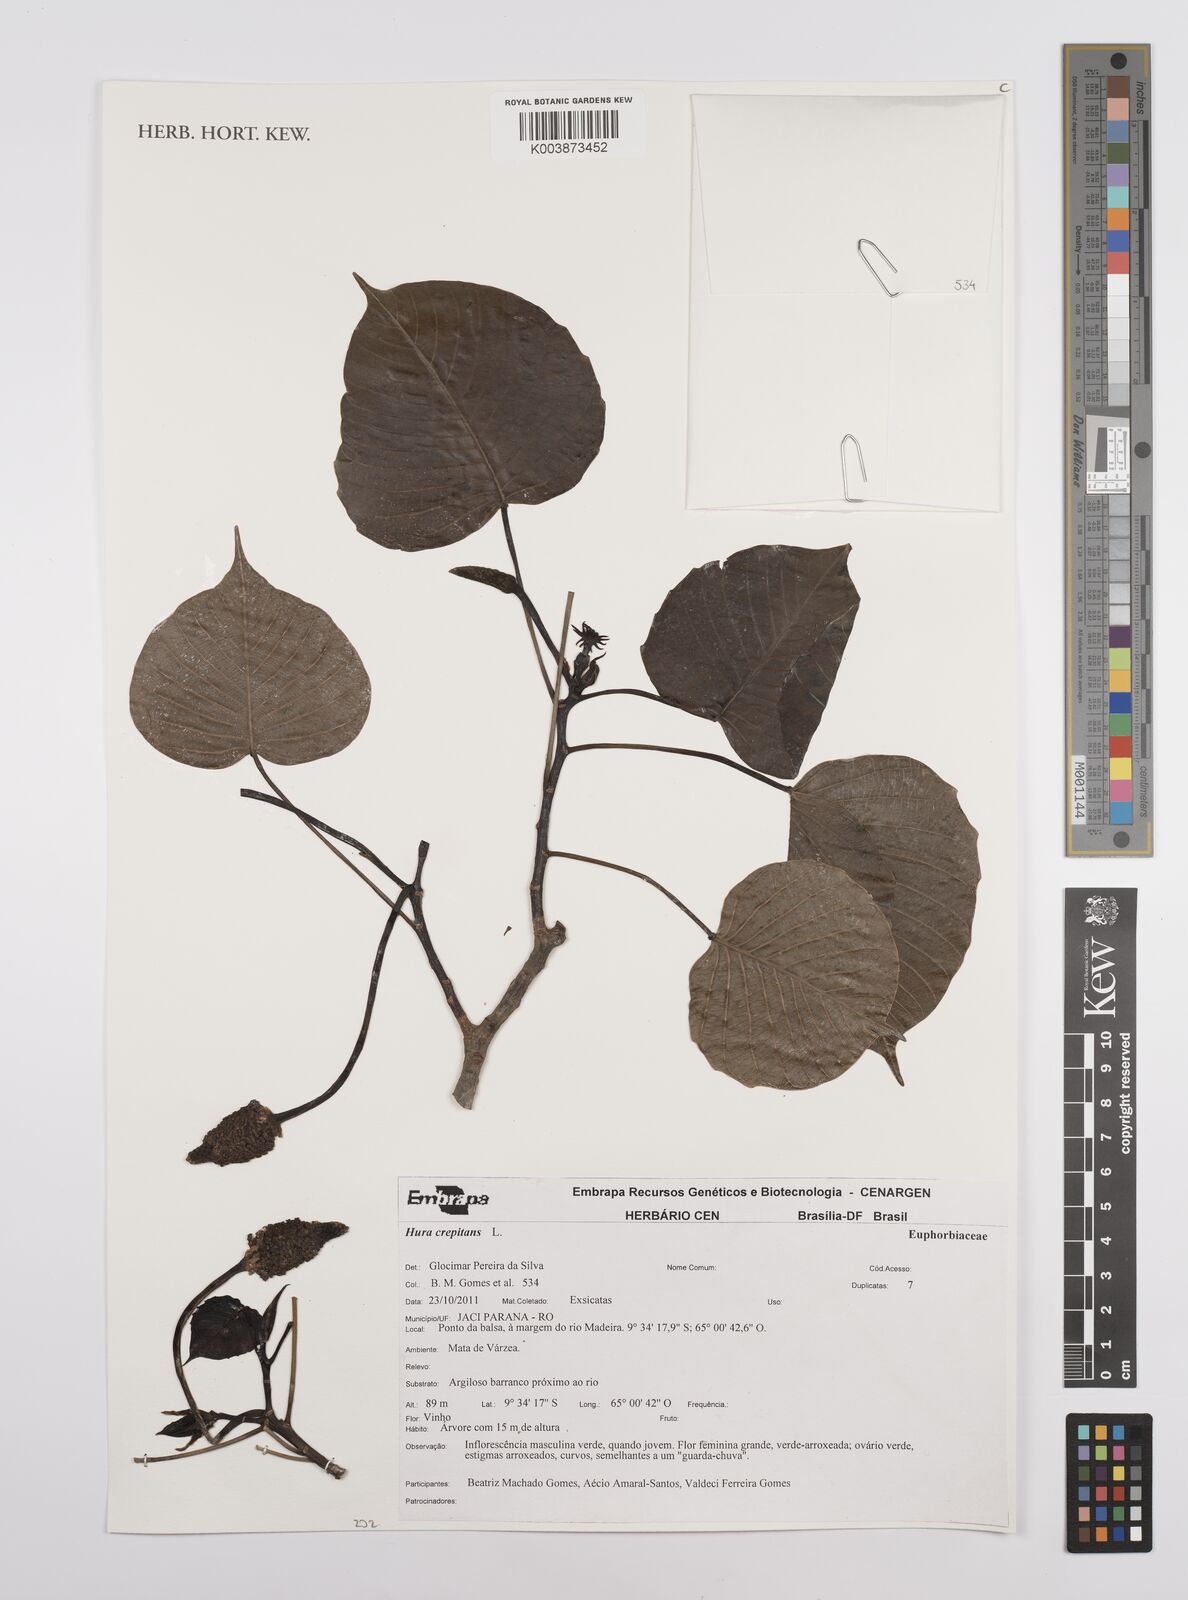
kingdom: Plantae
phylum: Tracheophyta
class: Magnoliopsida
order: Malpighiales
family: Euphorbiaceae
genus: Hura
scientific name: Hura crepitans
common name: Sandboxtree
